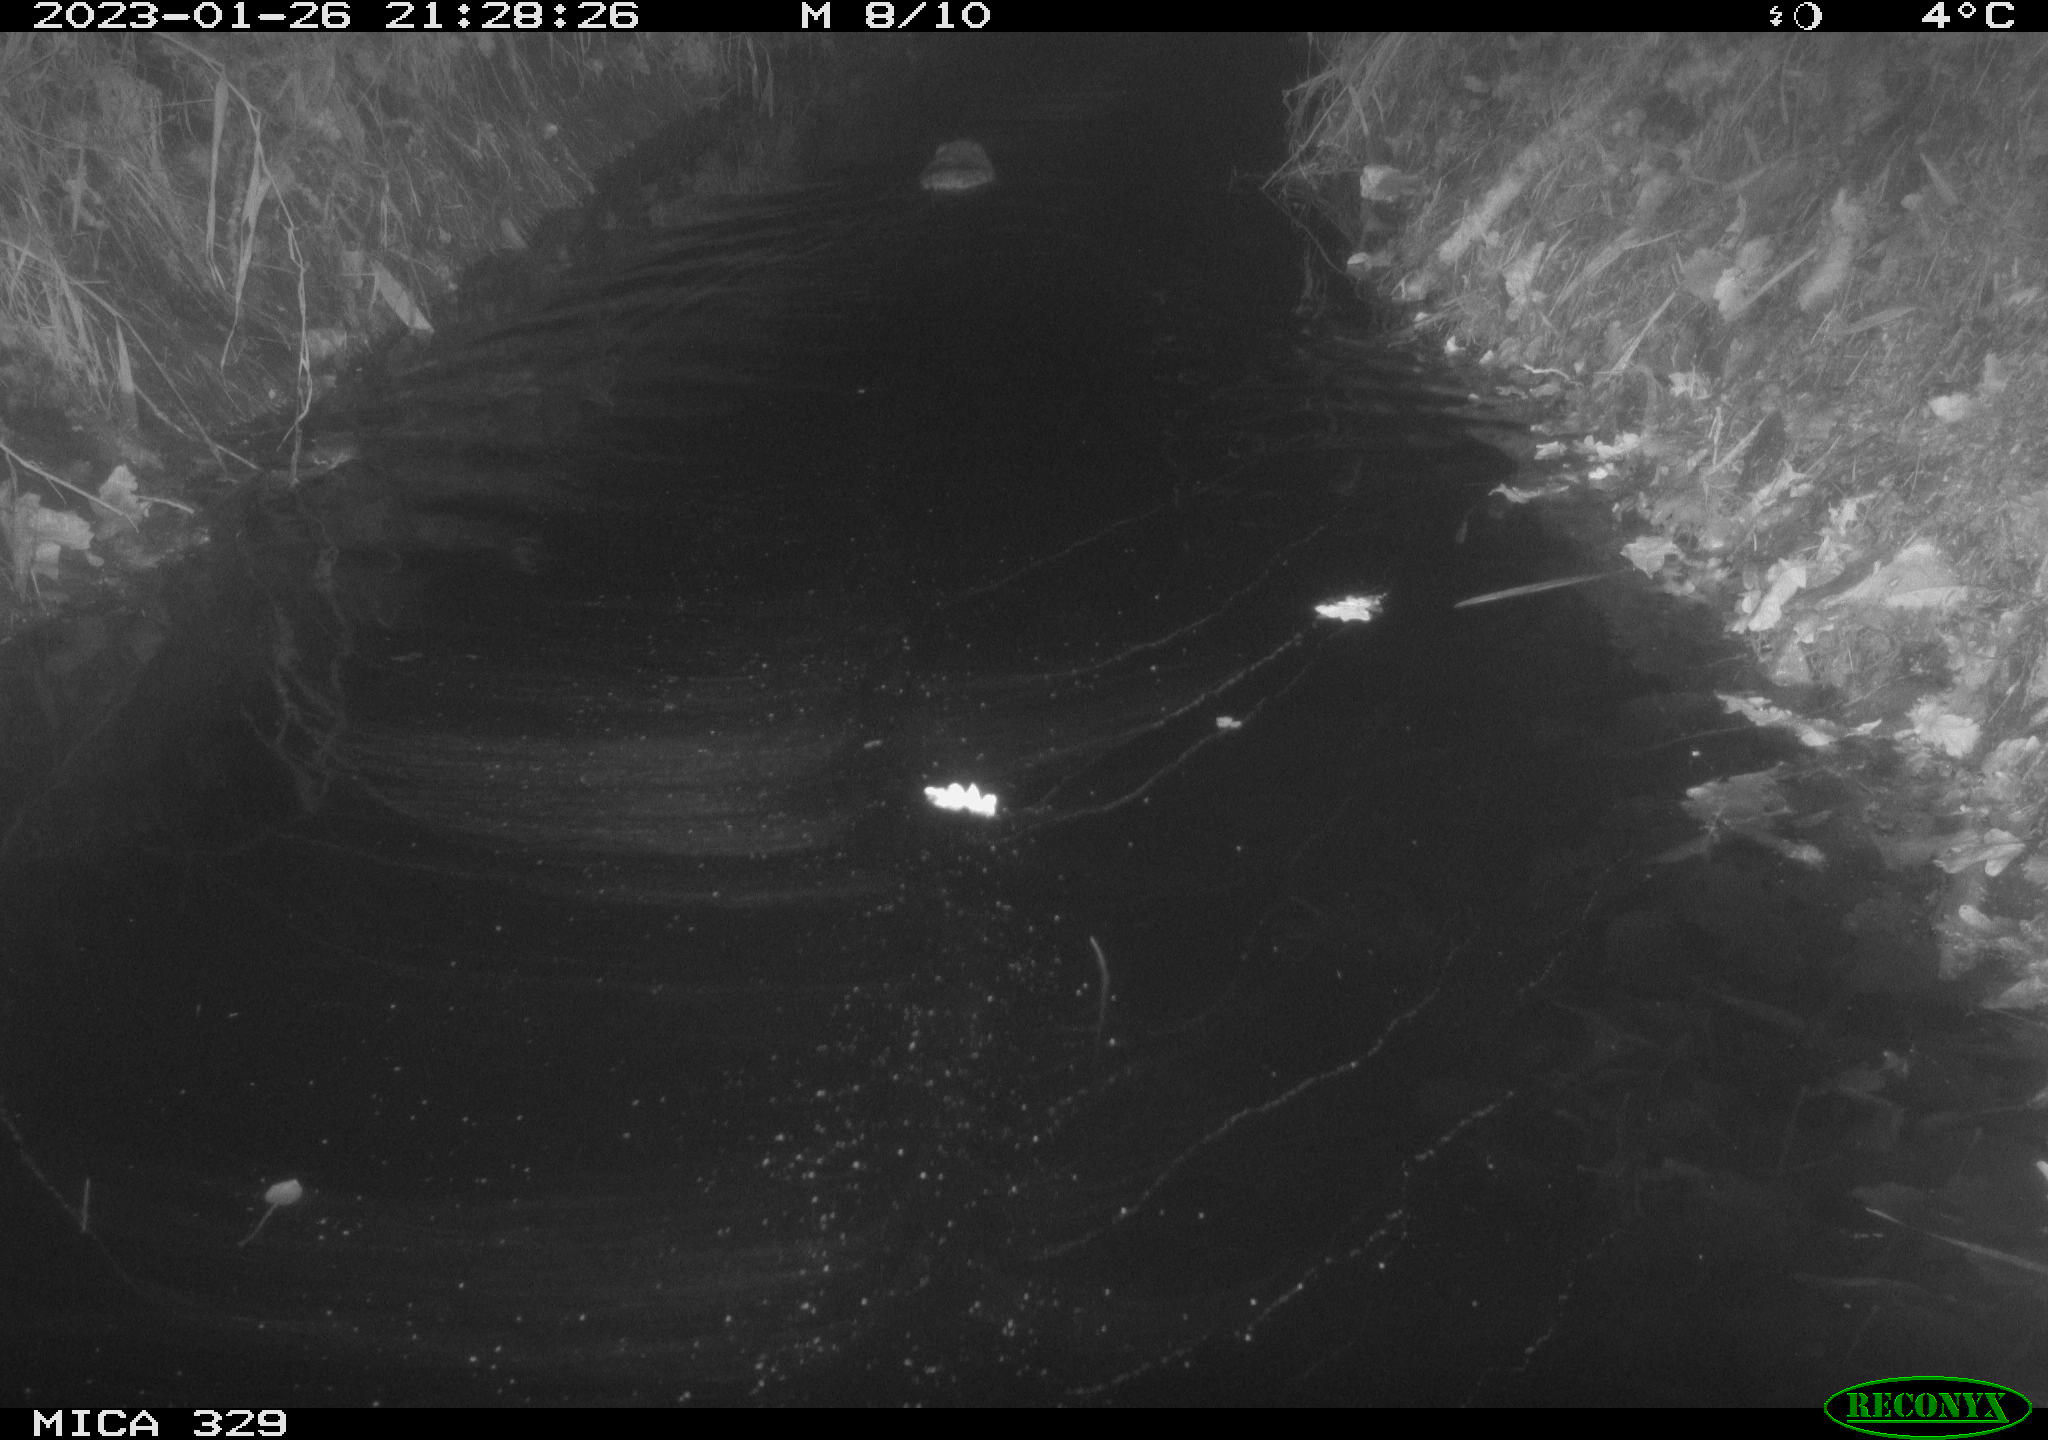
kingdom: Animalia
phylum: Chordata
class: Mammalia
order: Rodentia
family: Cricetidae
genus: Ondatra
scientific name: Ondatra zibethicus
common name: Muskrat
